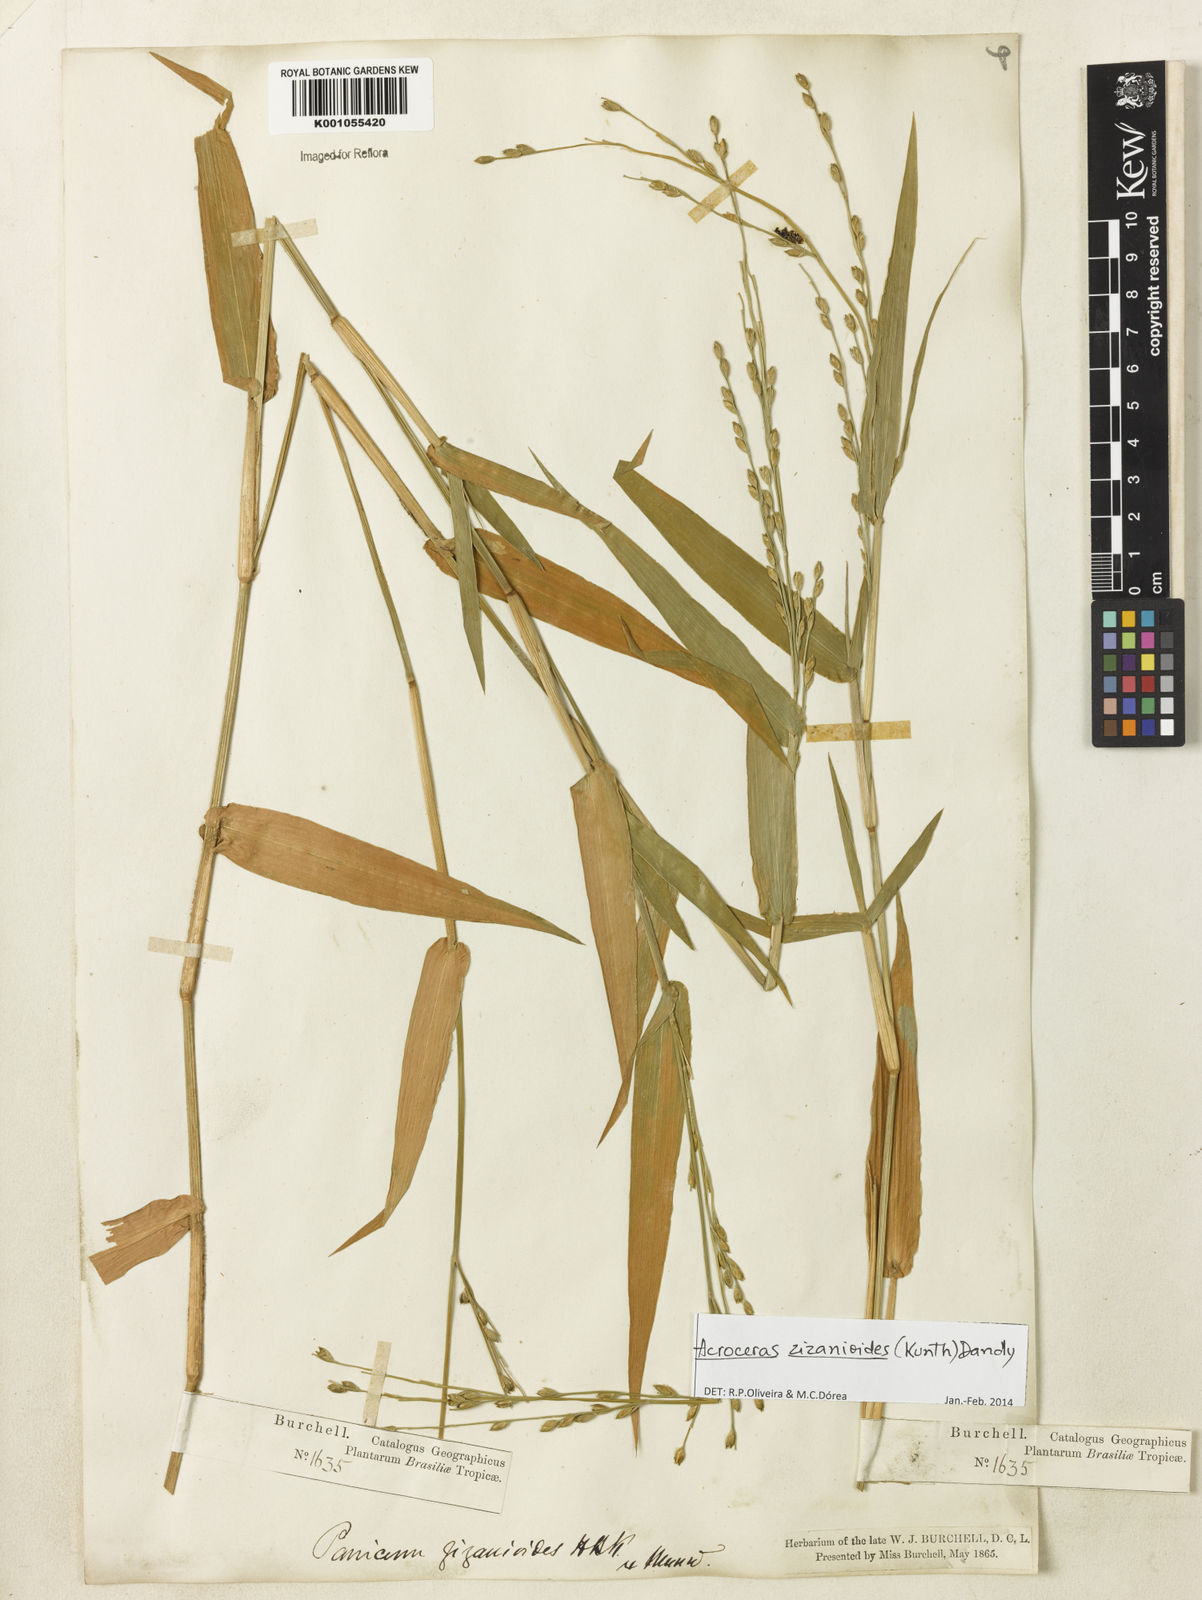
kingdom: Plantae
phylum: Tracheophyta
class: Liliopsida
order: Poales
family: Poaceae
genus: Acroceras
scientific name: Acroceras zizanioides
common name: Oat grass
